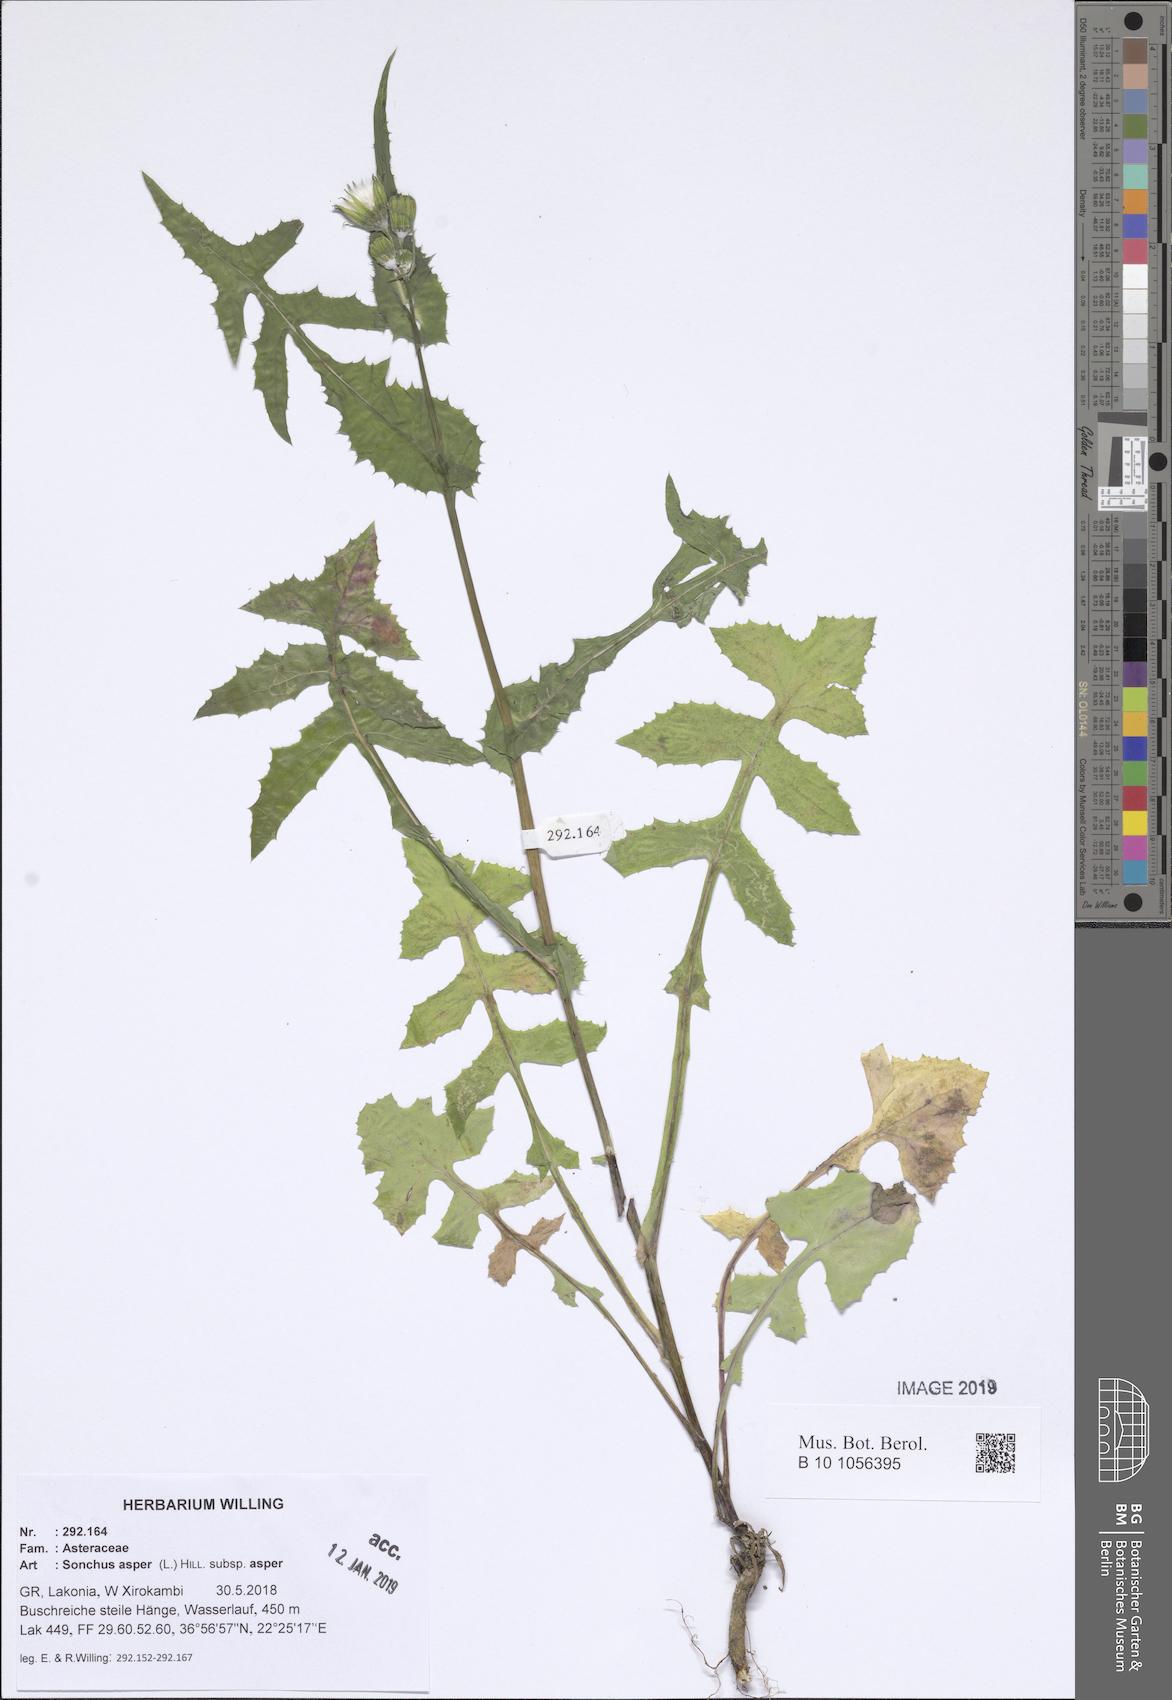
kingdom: Plantae
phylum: Tracheophyta
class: Magnoliopsida
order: Asterales
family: Asteraceae
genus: Sonchus
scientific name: Sonchus asper
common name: Prickly sow-thistle
